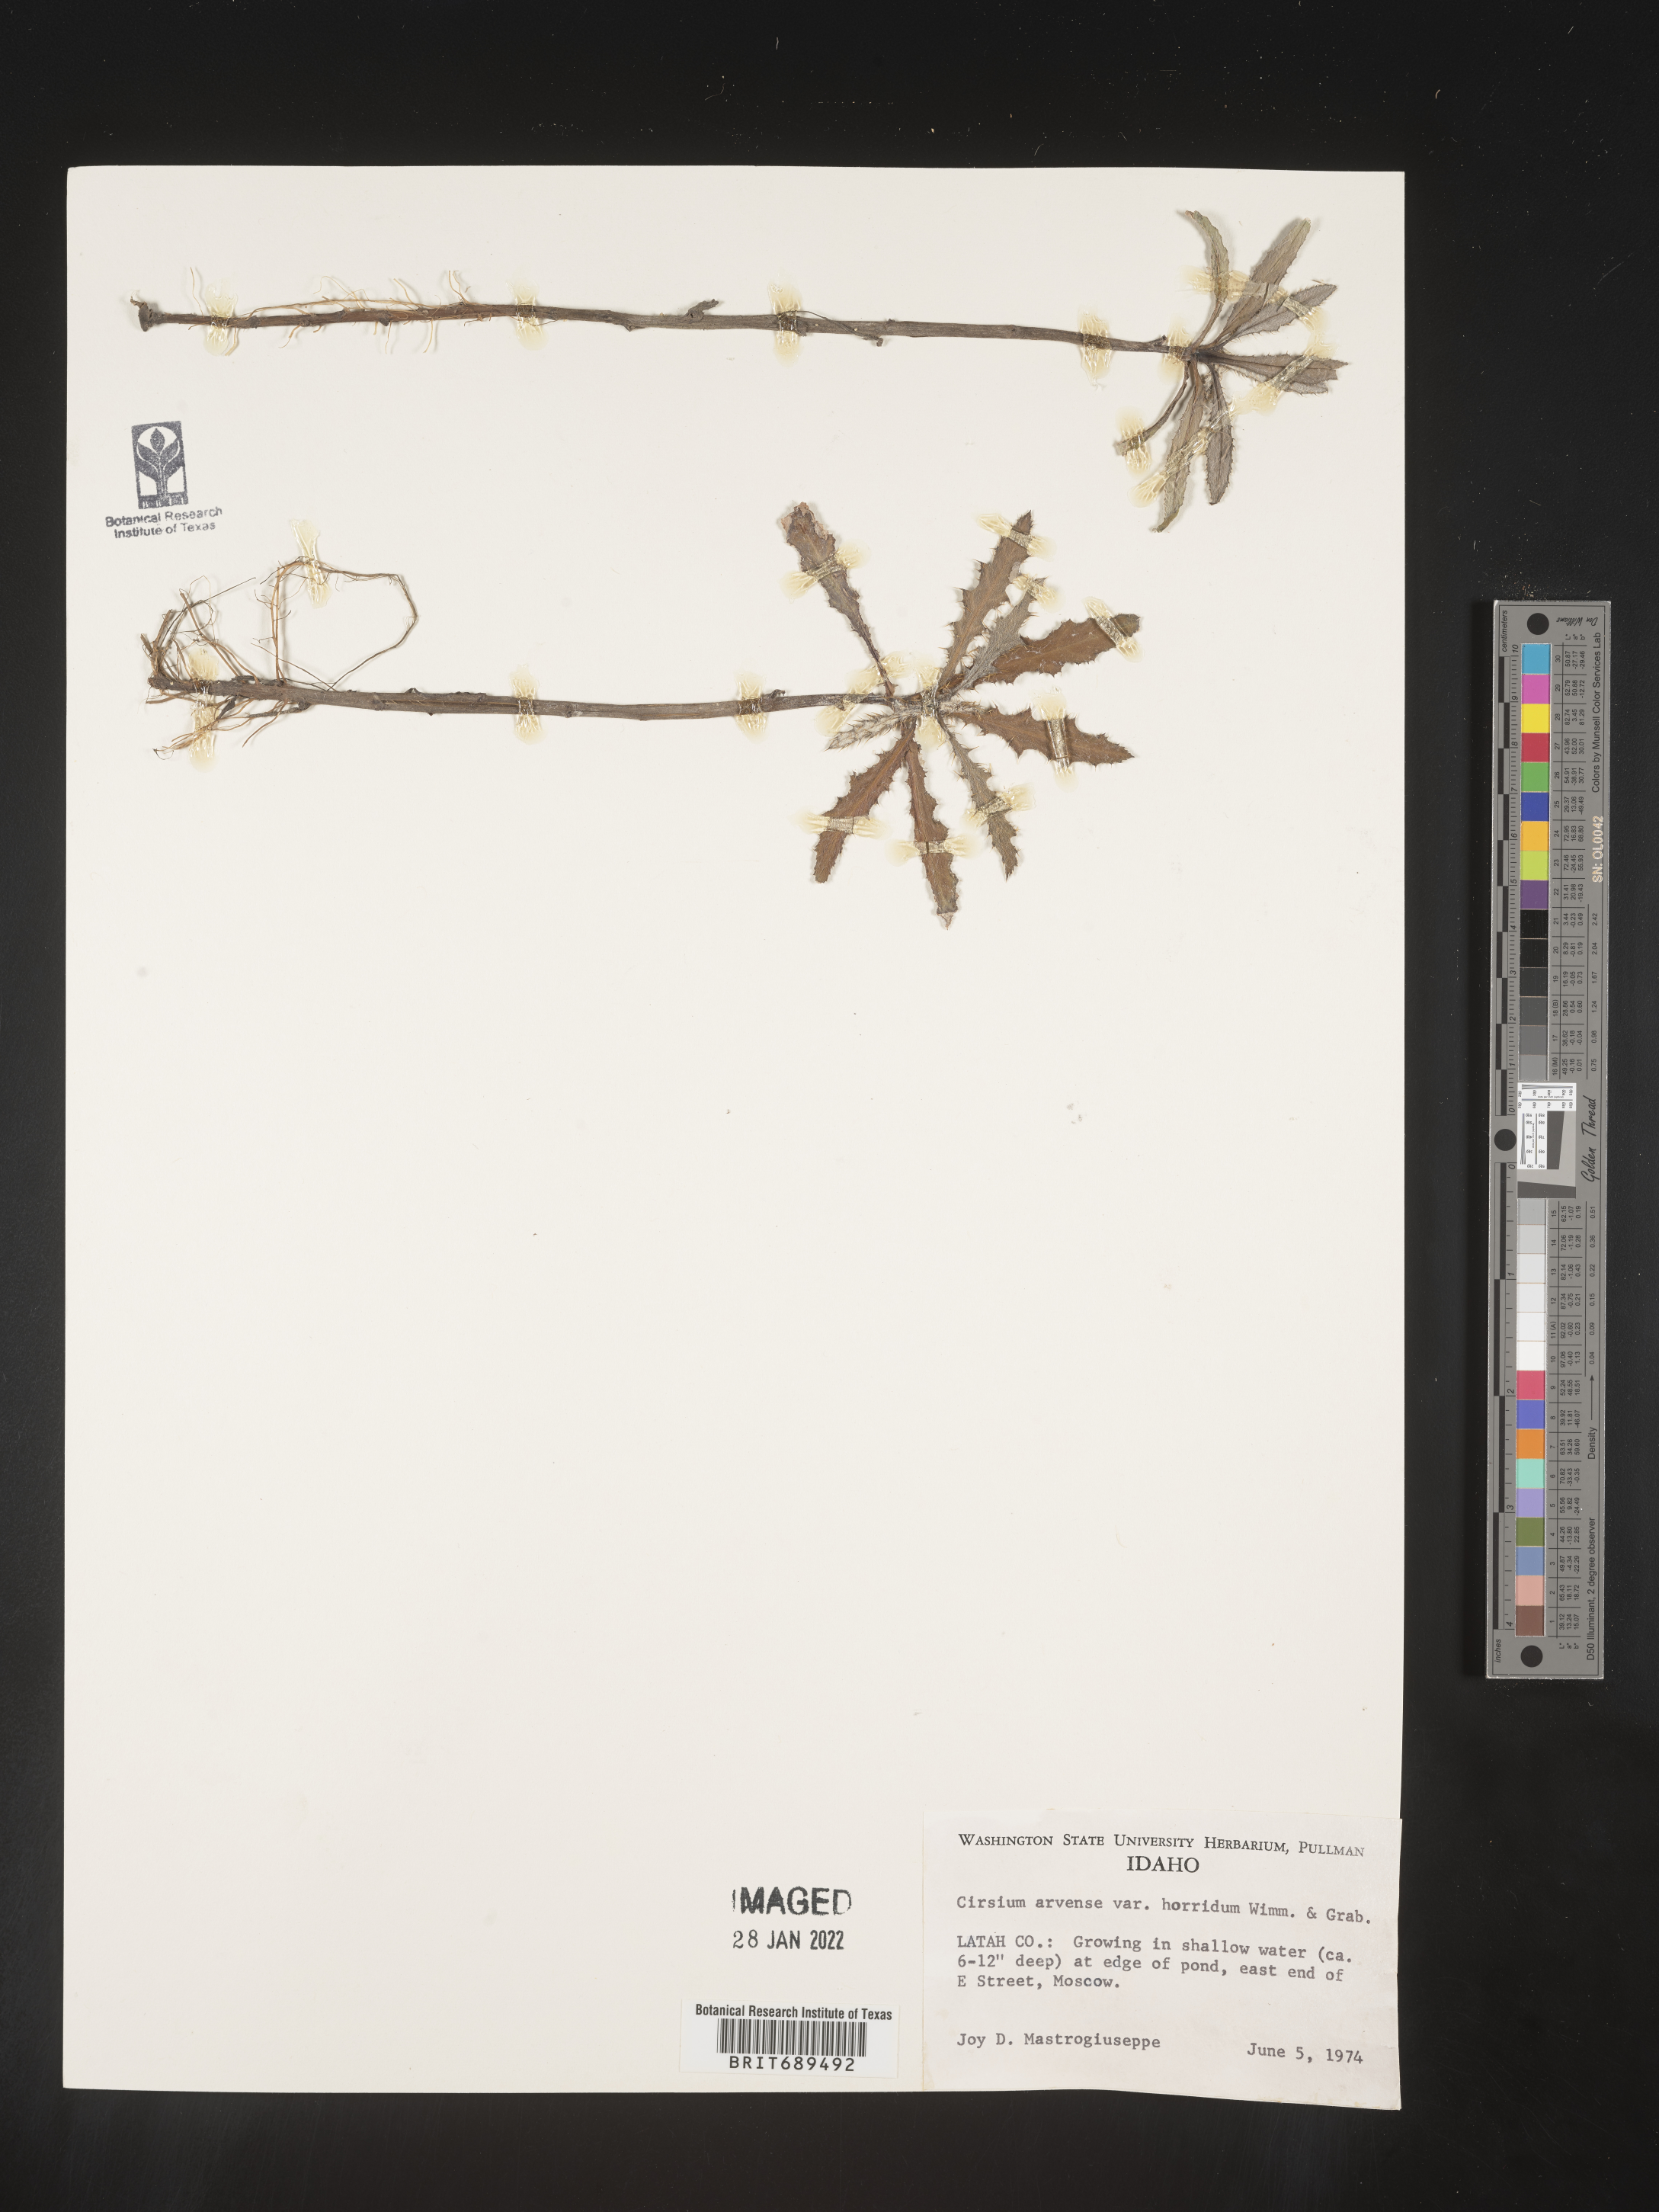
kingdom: Plantae
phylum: Tracheophyta
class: Magnoliopsida
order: Asterales
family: Asteraceae
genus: Cirsium
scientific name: Cirsium arvense
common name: Creeping thistle
